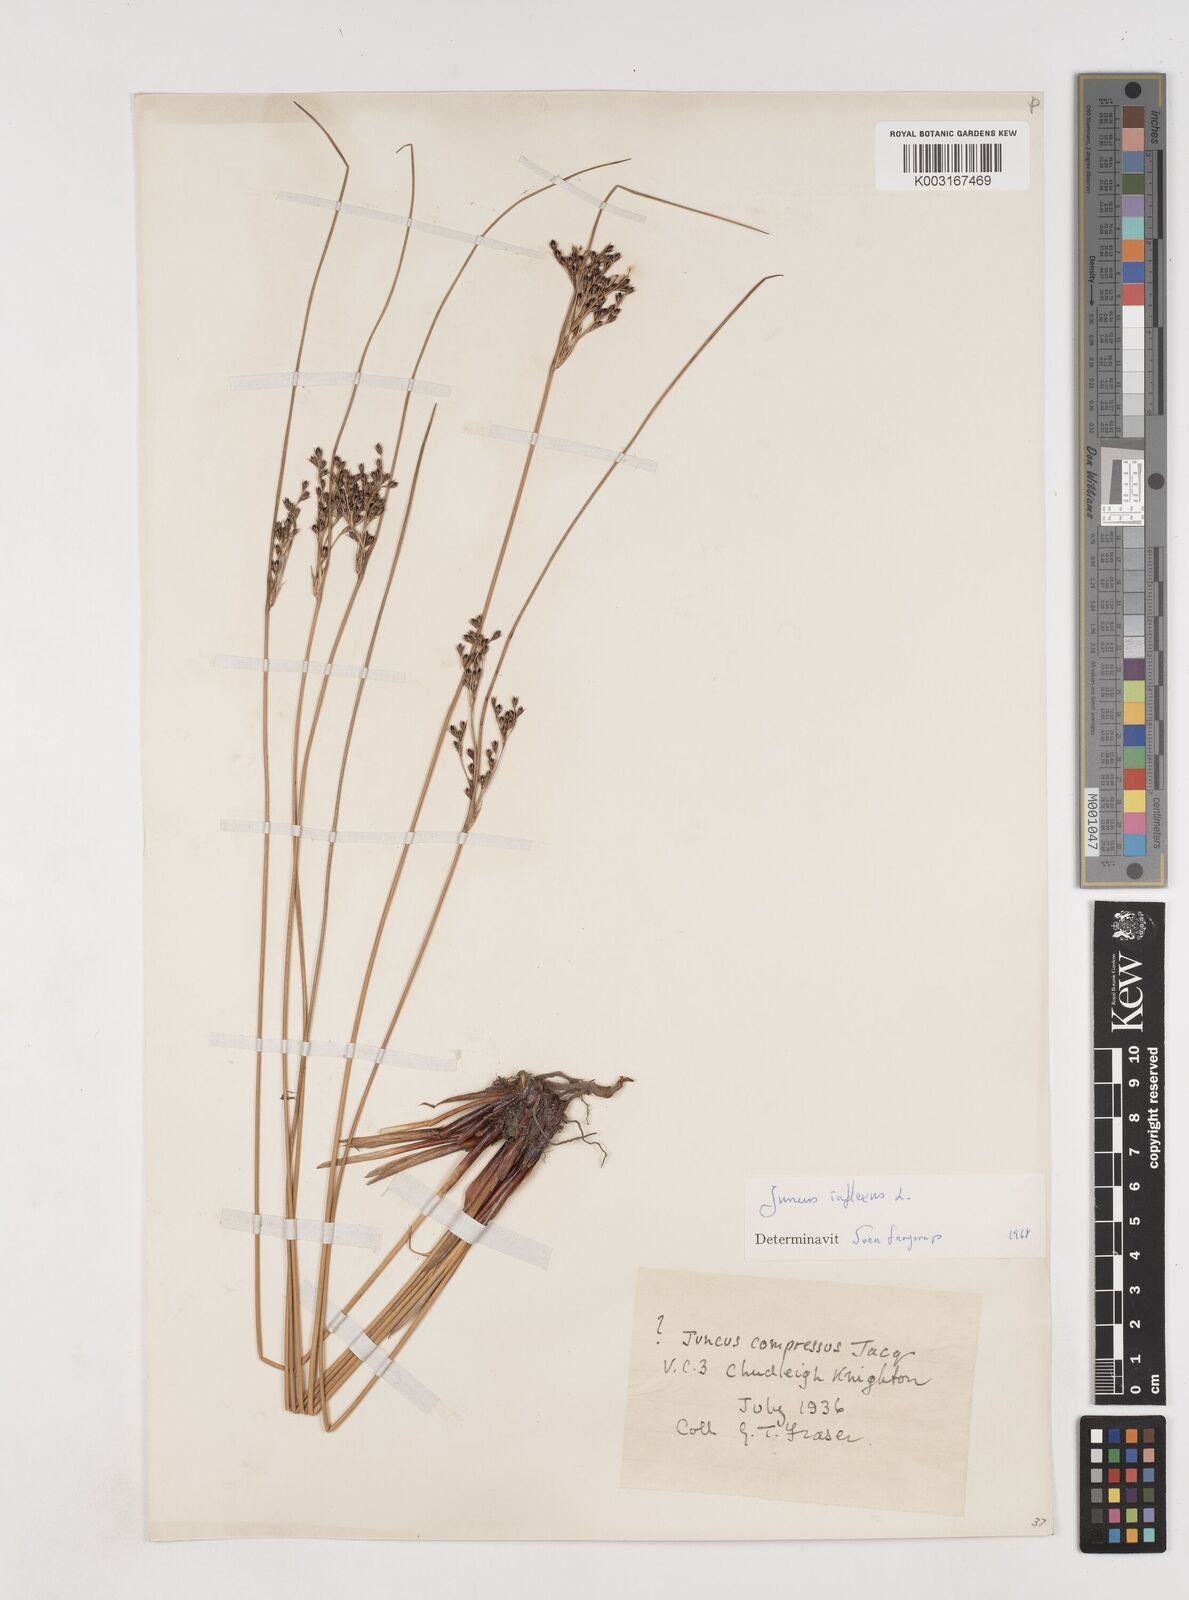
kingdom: Plantae
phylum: Tracheophyta
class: Liliopsida
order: Poales
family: Juncaceae
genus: Juncus
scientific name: Juncus inflexus
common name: Hard rush
